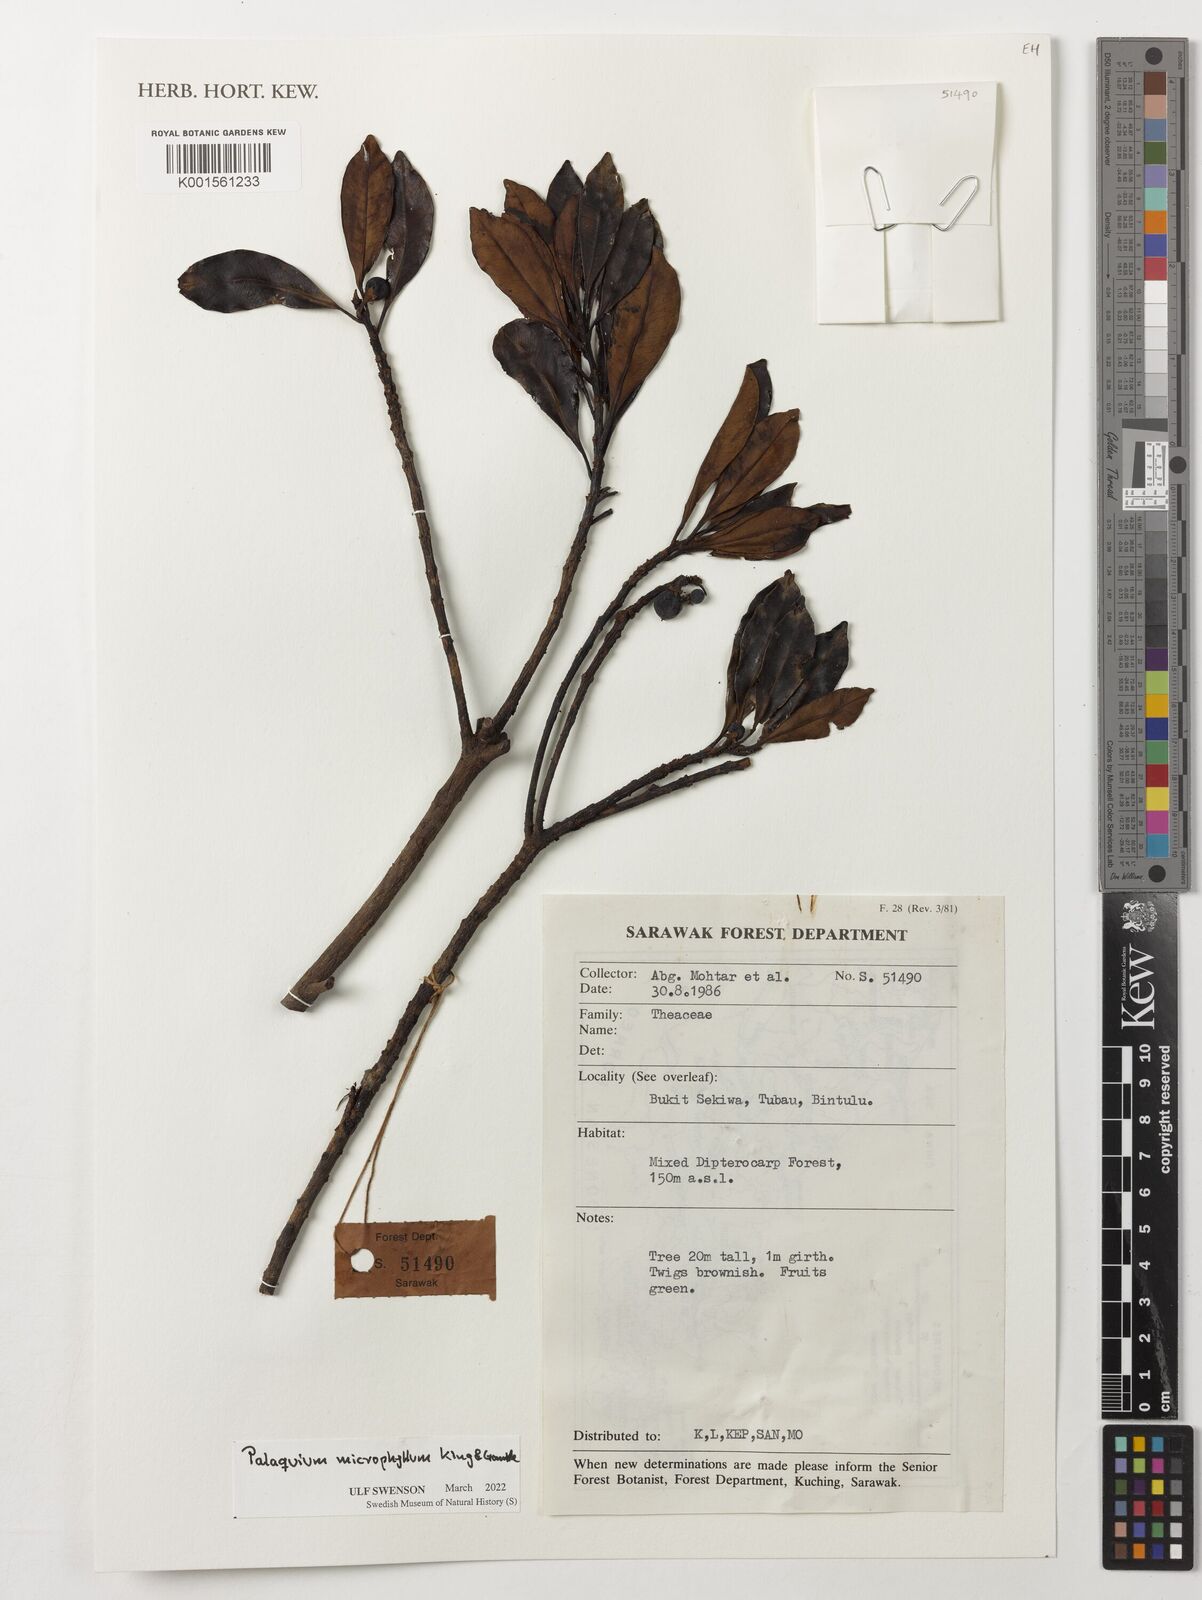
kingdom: Plantae
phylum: Tracheophyta
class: Magnoliopsida
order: Ericales
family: Sapotaceae
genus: Palaquium
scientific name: Palaquium microphyllum
